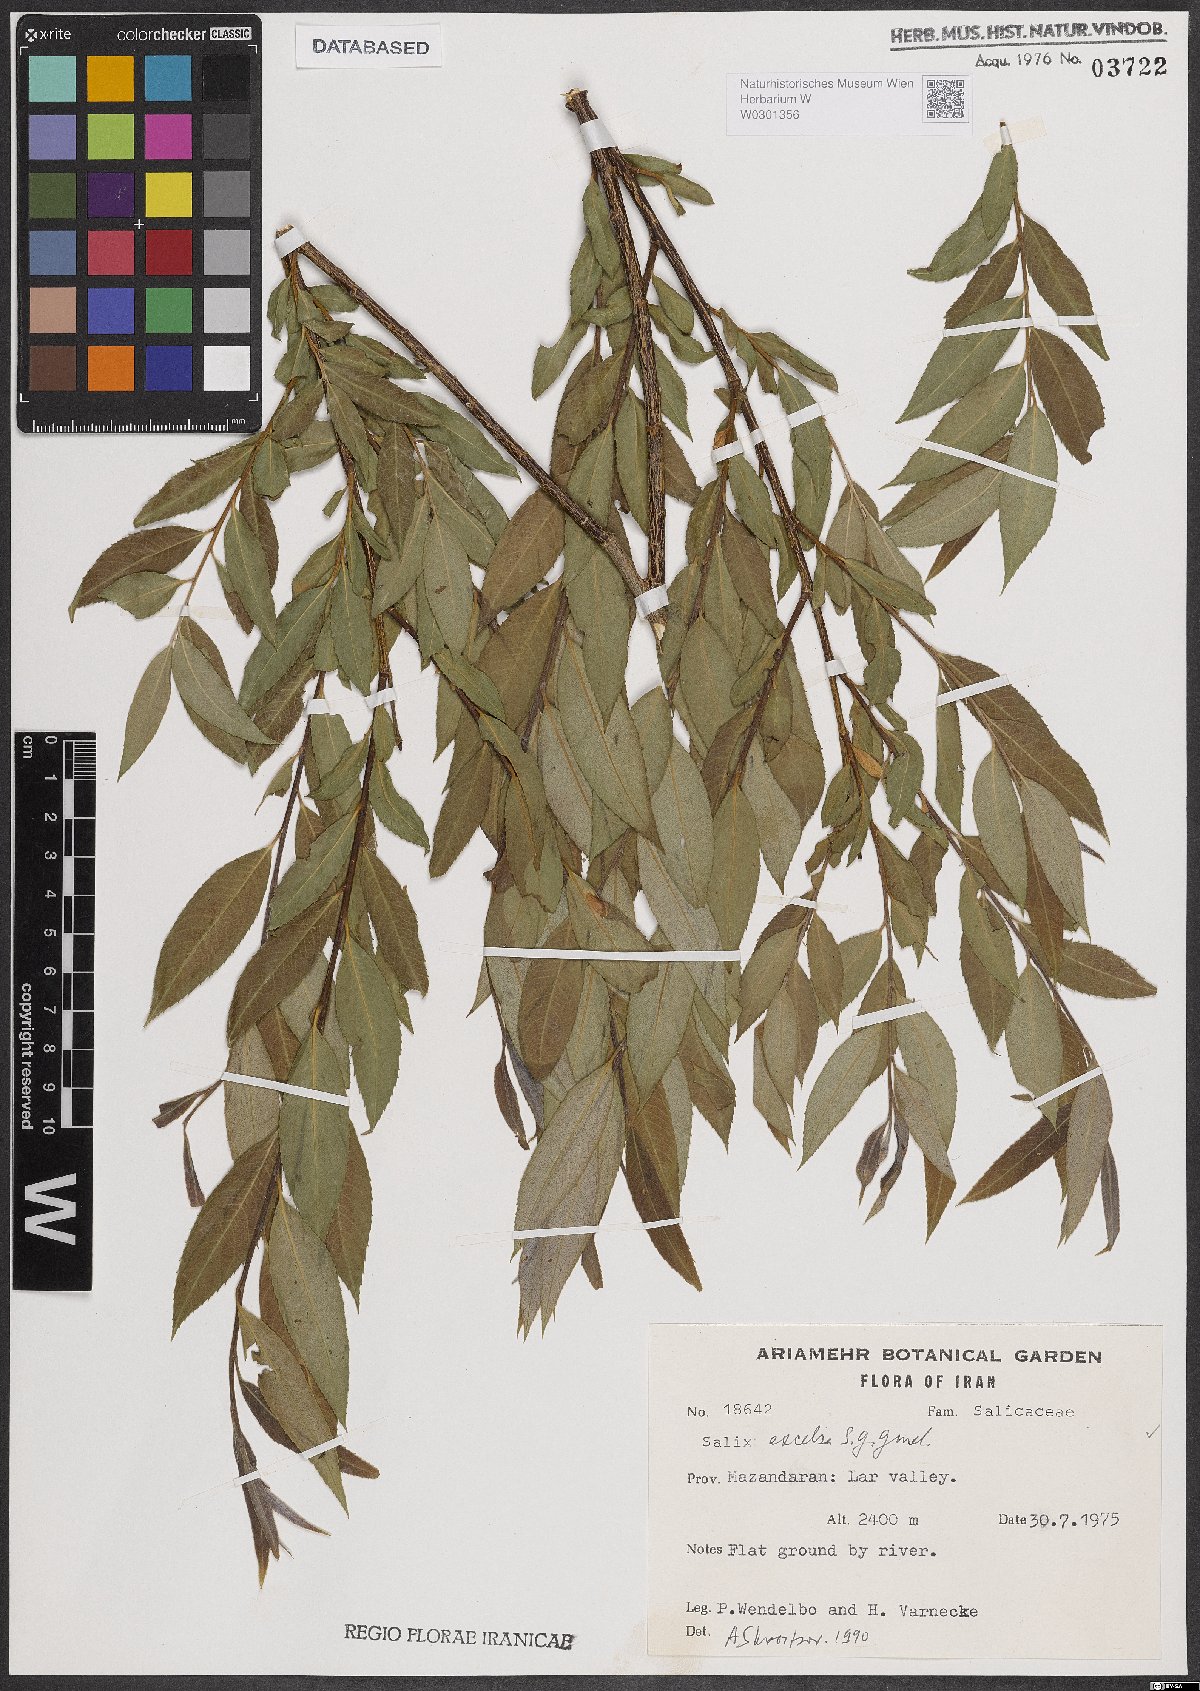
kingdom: Plantae
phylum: Tracheophyta
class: Magnoliopsida
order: Malpighiales
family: Salicaceae
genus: Salix
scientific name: Salix excelsa
